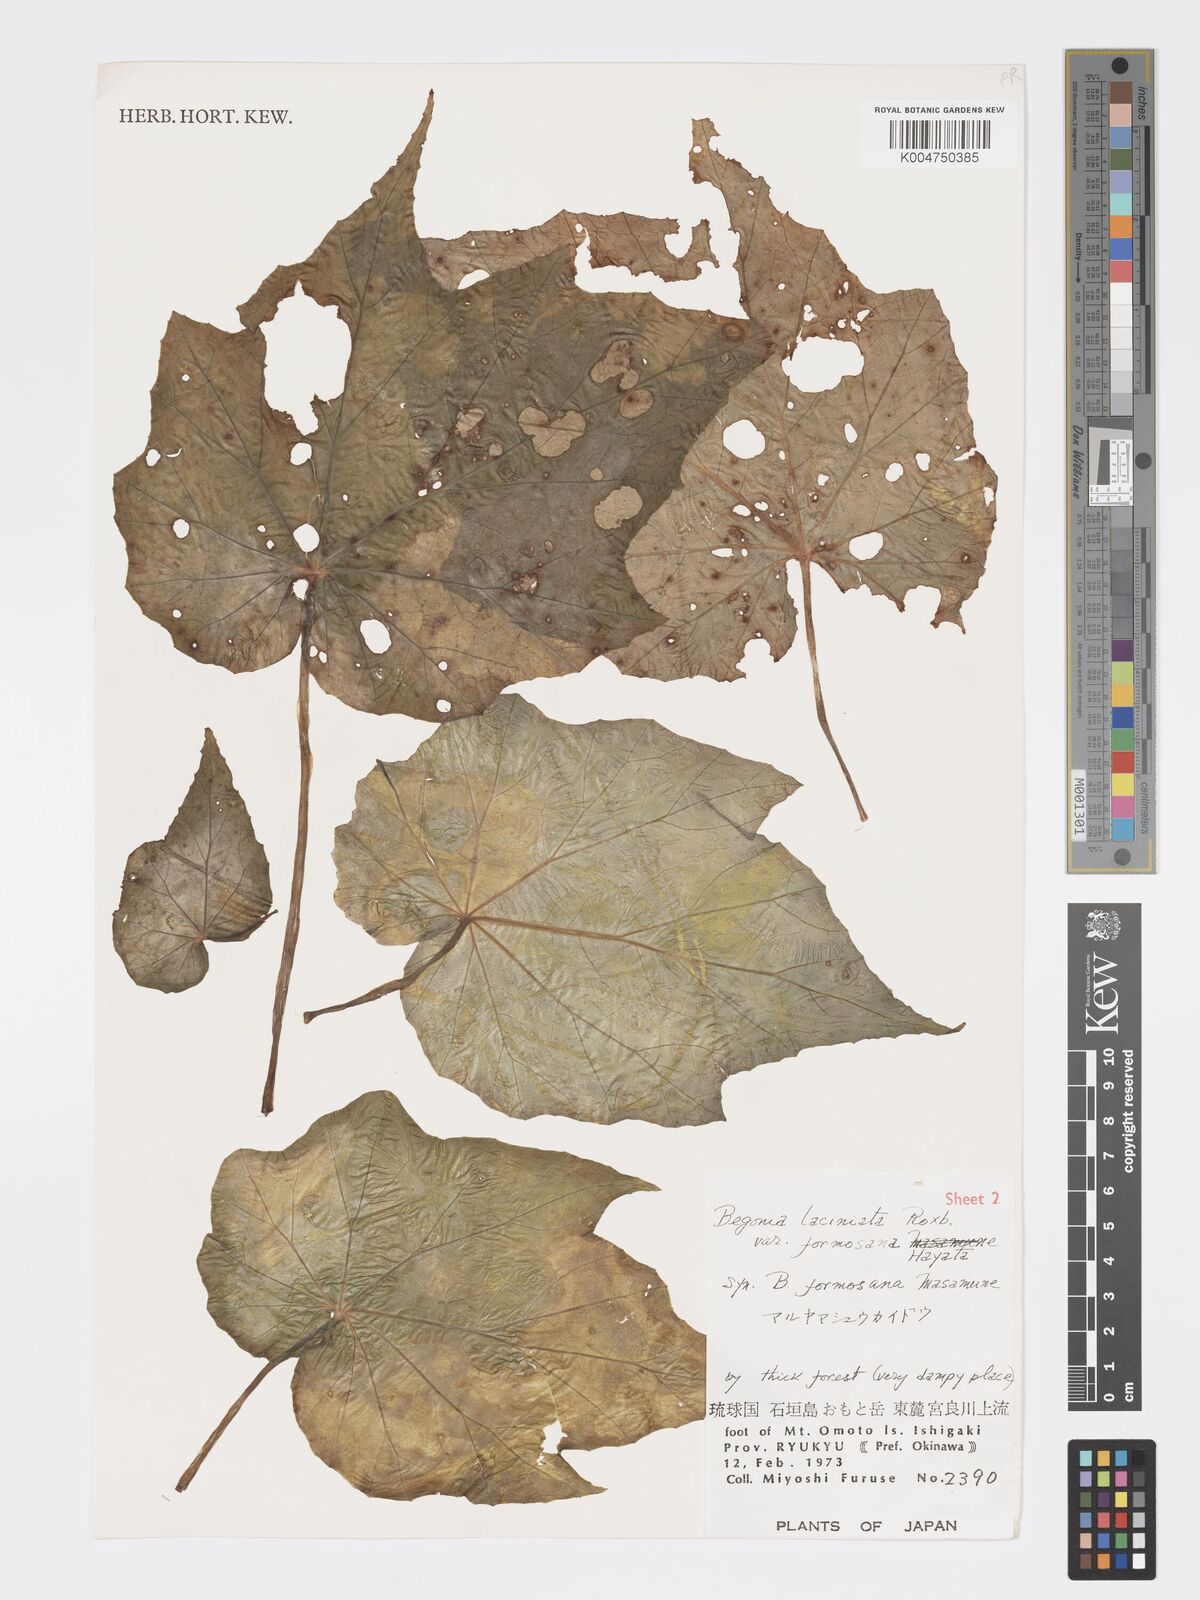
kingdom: Plantae
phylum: Tracheophyta
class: Magnoliopsida
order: Cucurbitales
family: Begoniaceae
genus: Begonia
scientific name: Begonia formosana
